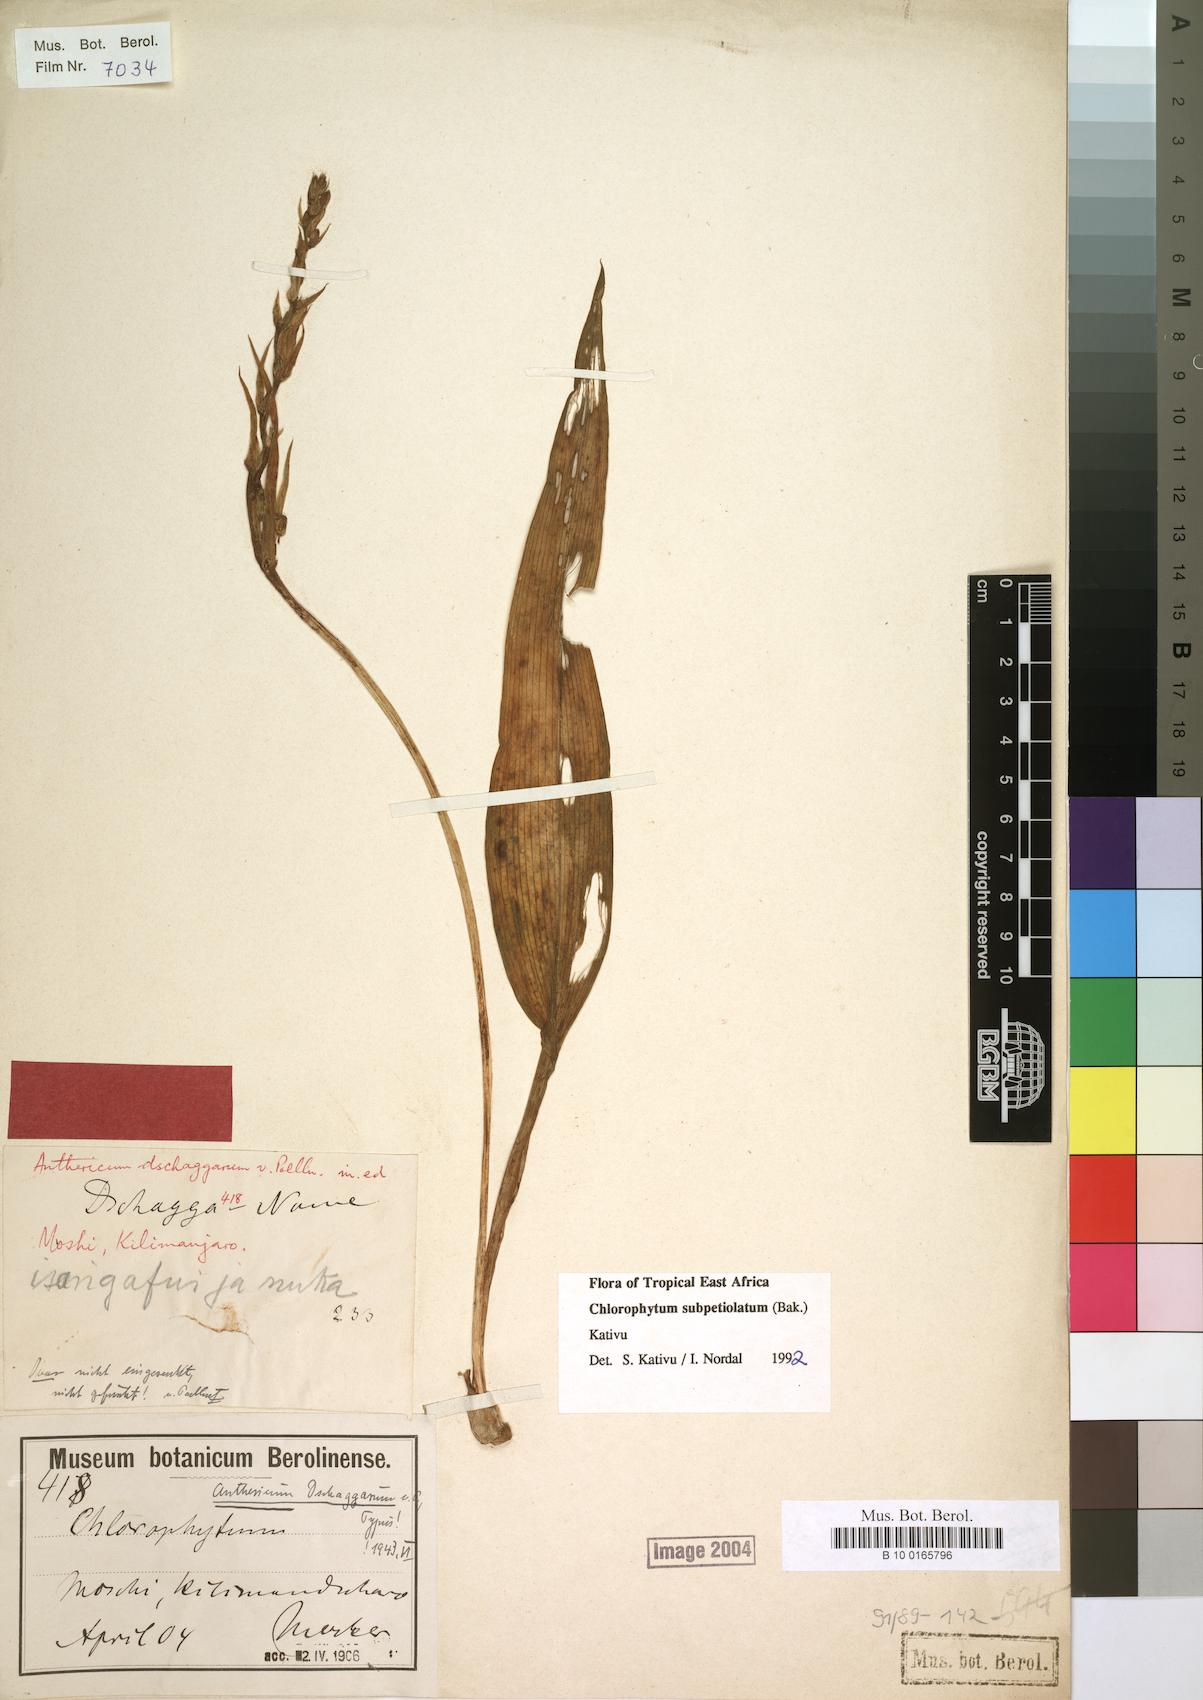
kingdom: Plantae
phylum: Tracheophyta
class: Liliopsida
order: Asparagales
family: Asparagaceae
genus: Chlorophytum
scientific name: Chlorophytum subpetiolatum
